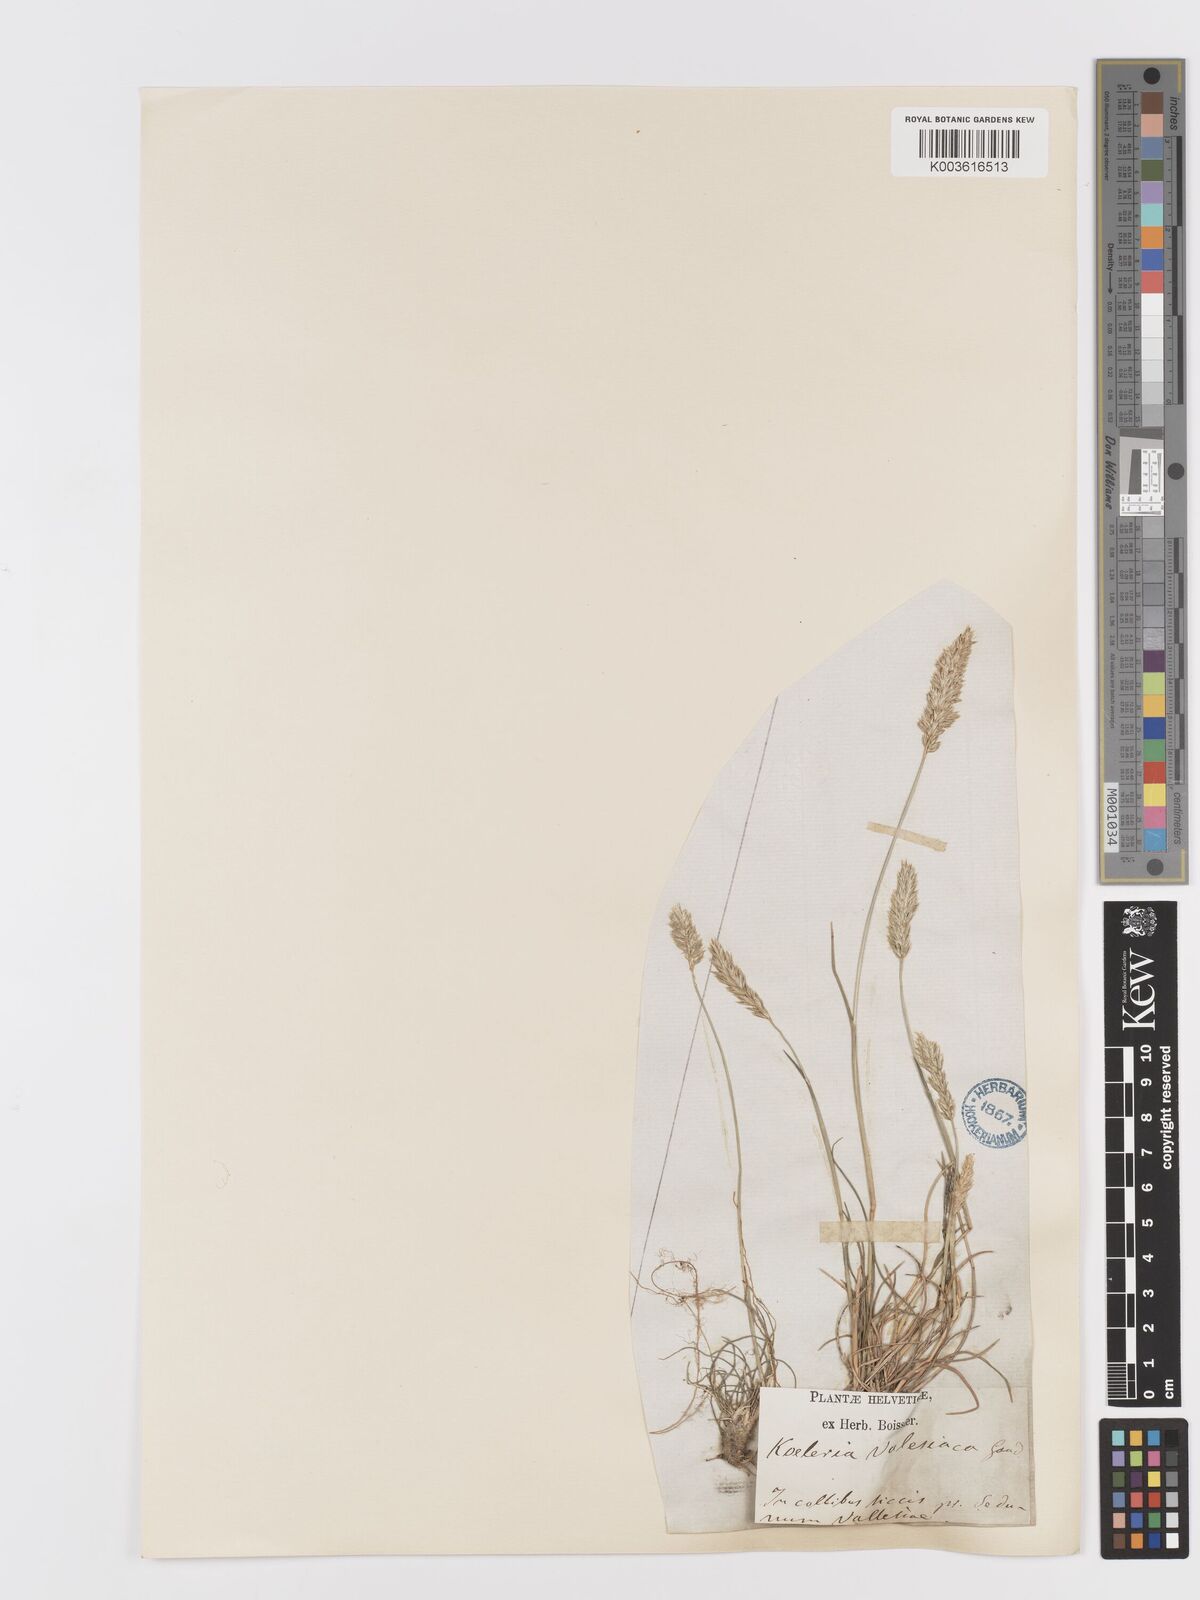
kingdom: Plantae
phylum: Tracheophyta
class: Liliopsida
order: Poales
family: Poaceae
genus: Koeleria
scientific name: Koeleria vallesiana
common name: Somerset hair-grass
